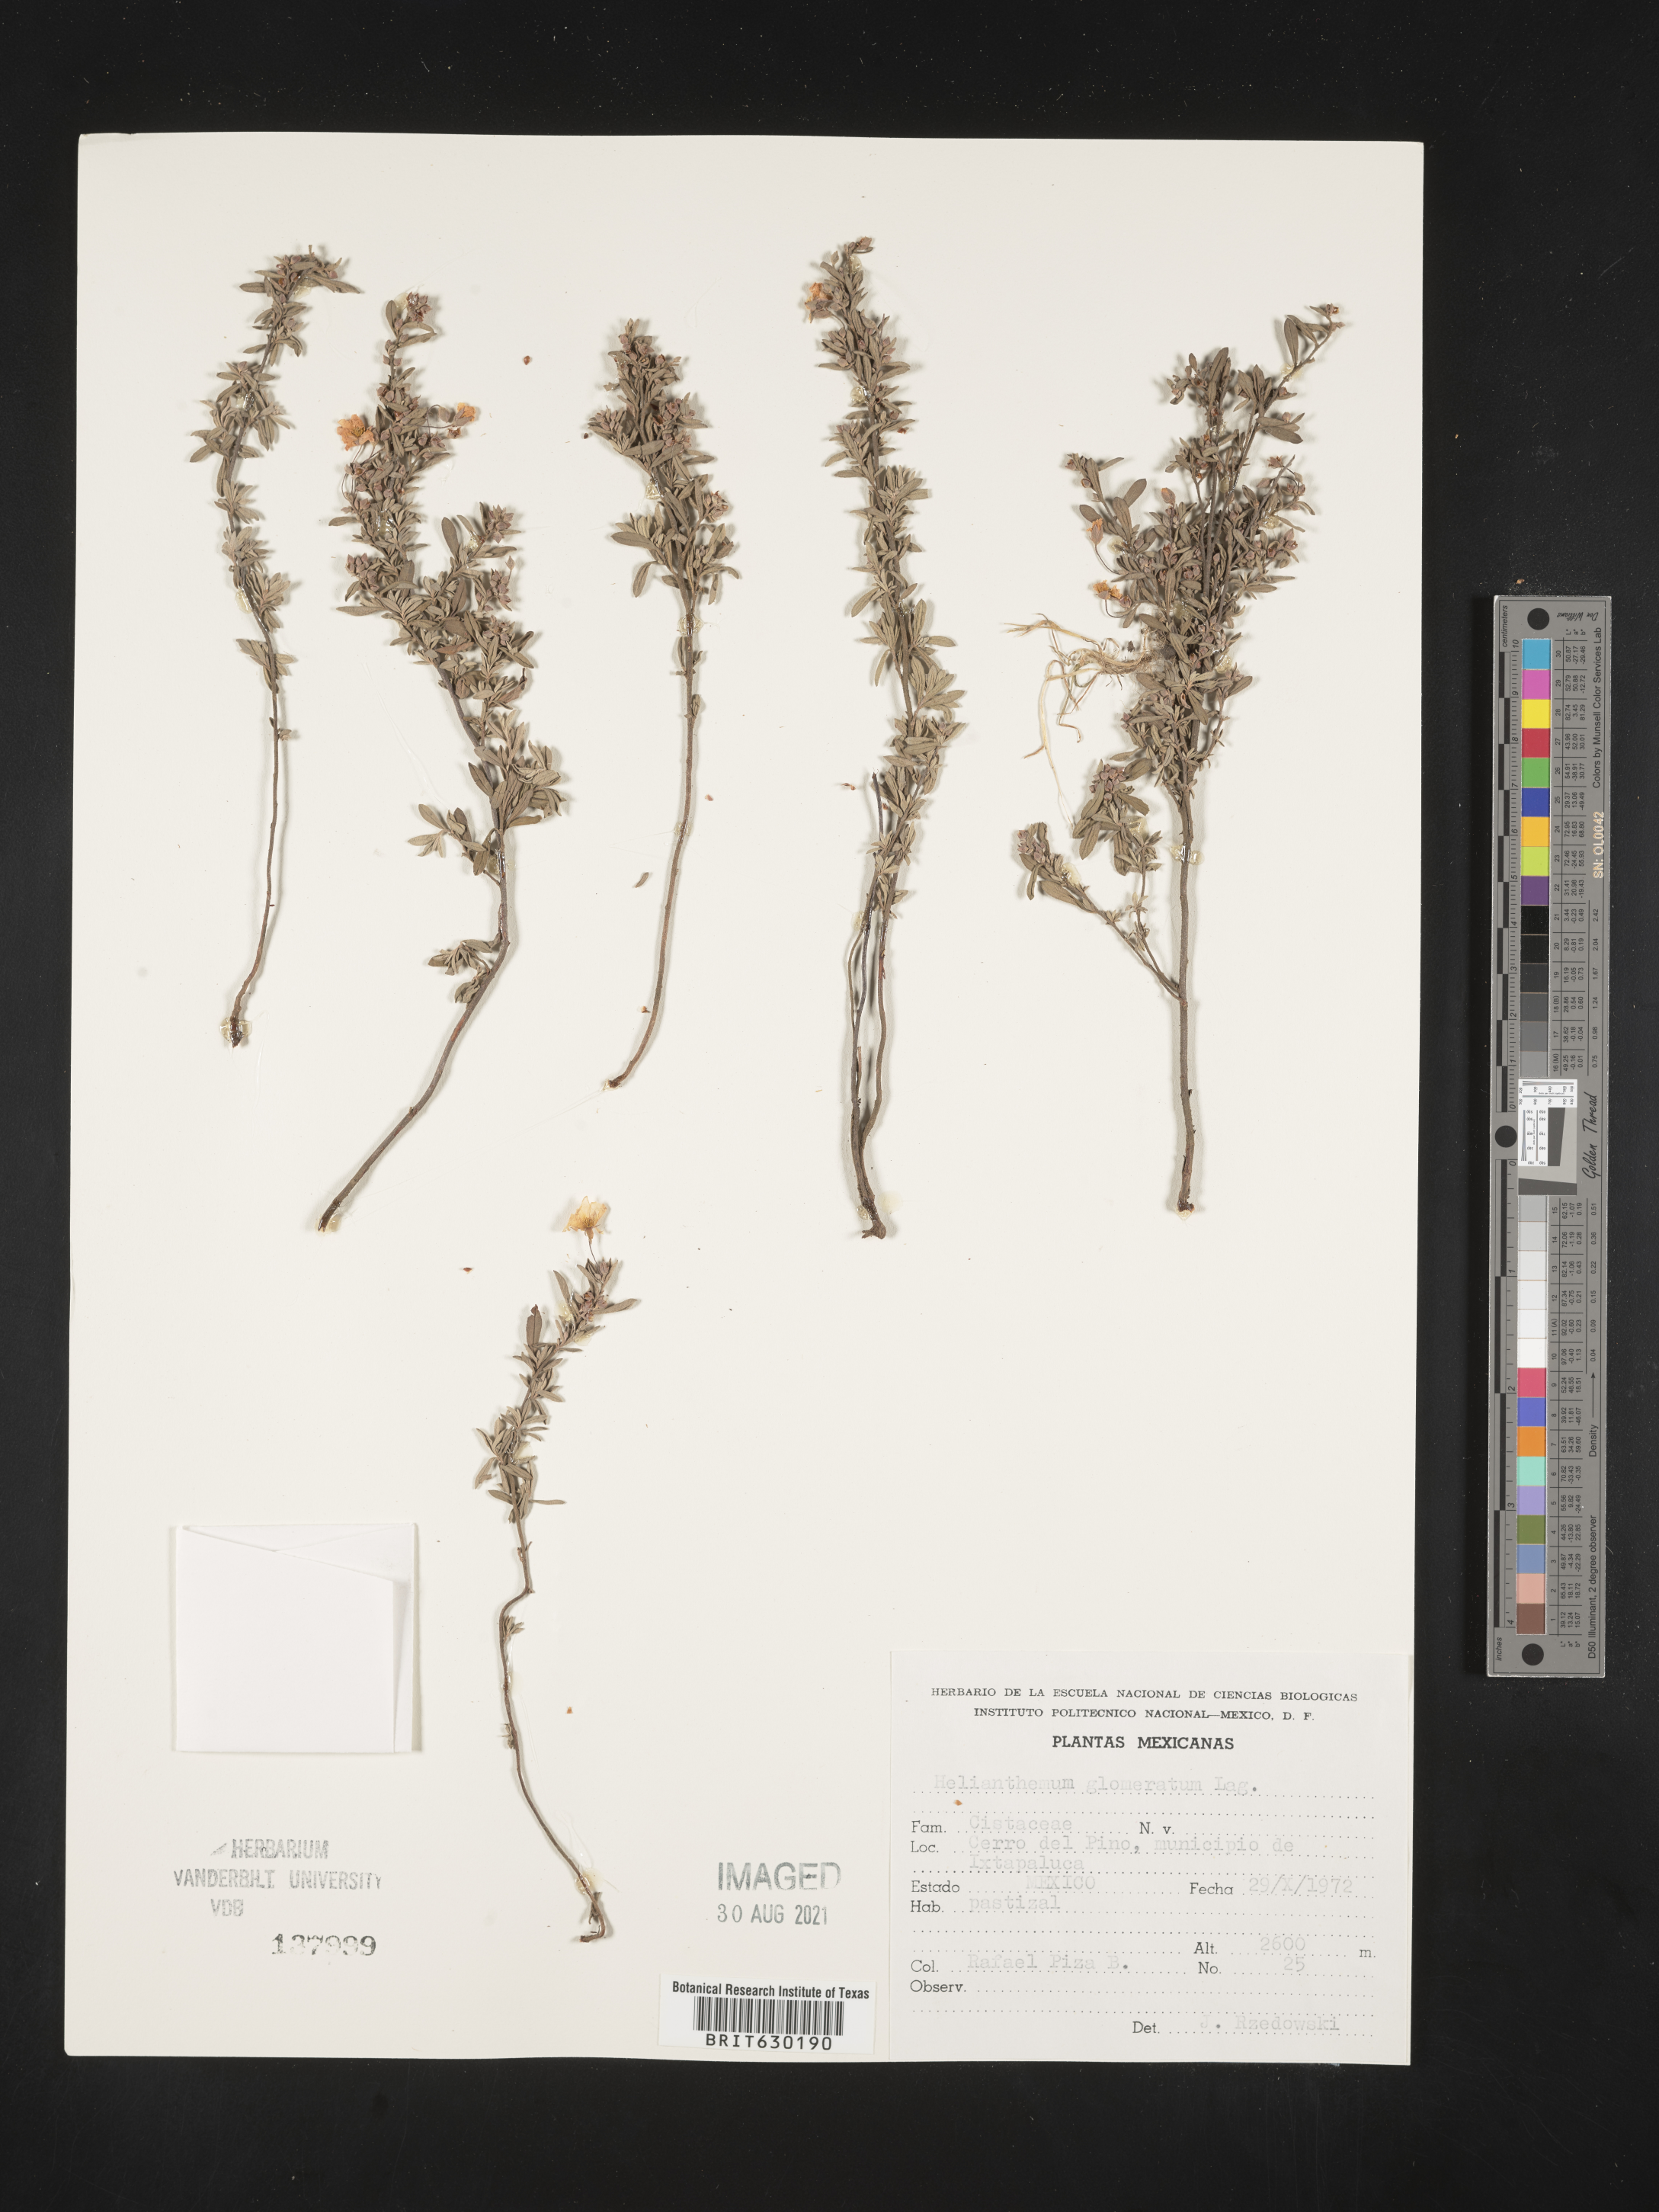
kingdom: Plantae
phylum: Tracheophyta
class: Magnoliopsida
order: Malvales
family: Cistaceae
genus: Helianthemum
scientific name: Helianthemum
